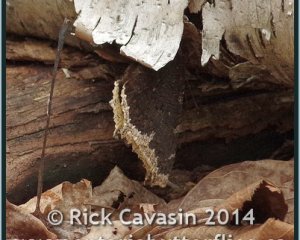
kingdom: Animalia
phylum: Arthropoda
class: Insecta
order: Lepidoptera
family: Nymphalidae
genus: Nymphalis
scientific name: Nymphalis antiopa
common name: Mourning Cloak
